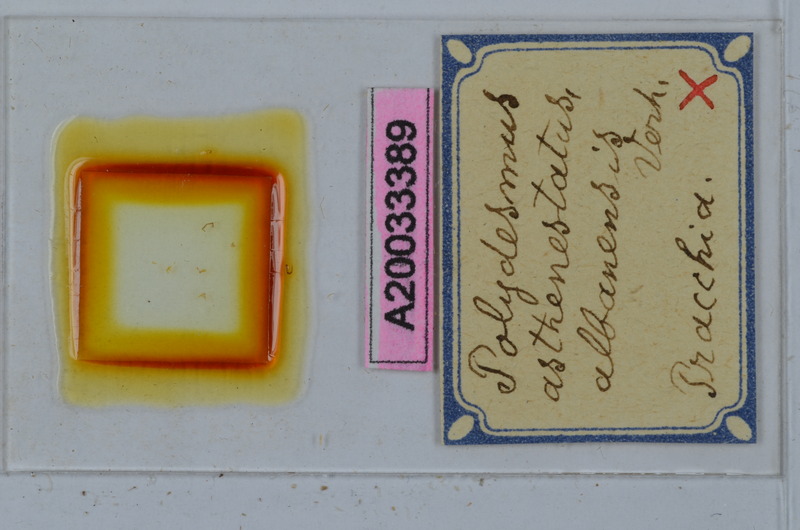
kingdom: Animalia
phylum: Arthropoda
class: Diplopoda
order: Polydesmida
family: Polydesmidae
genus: Polydesmus
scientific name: Polydesmus asthenestatus
